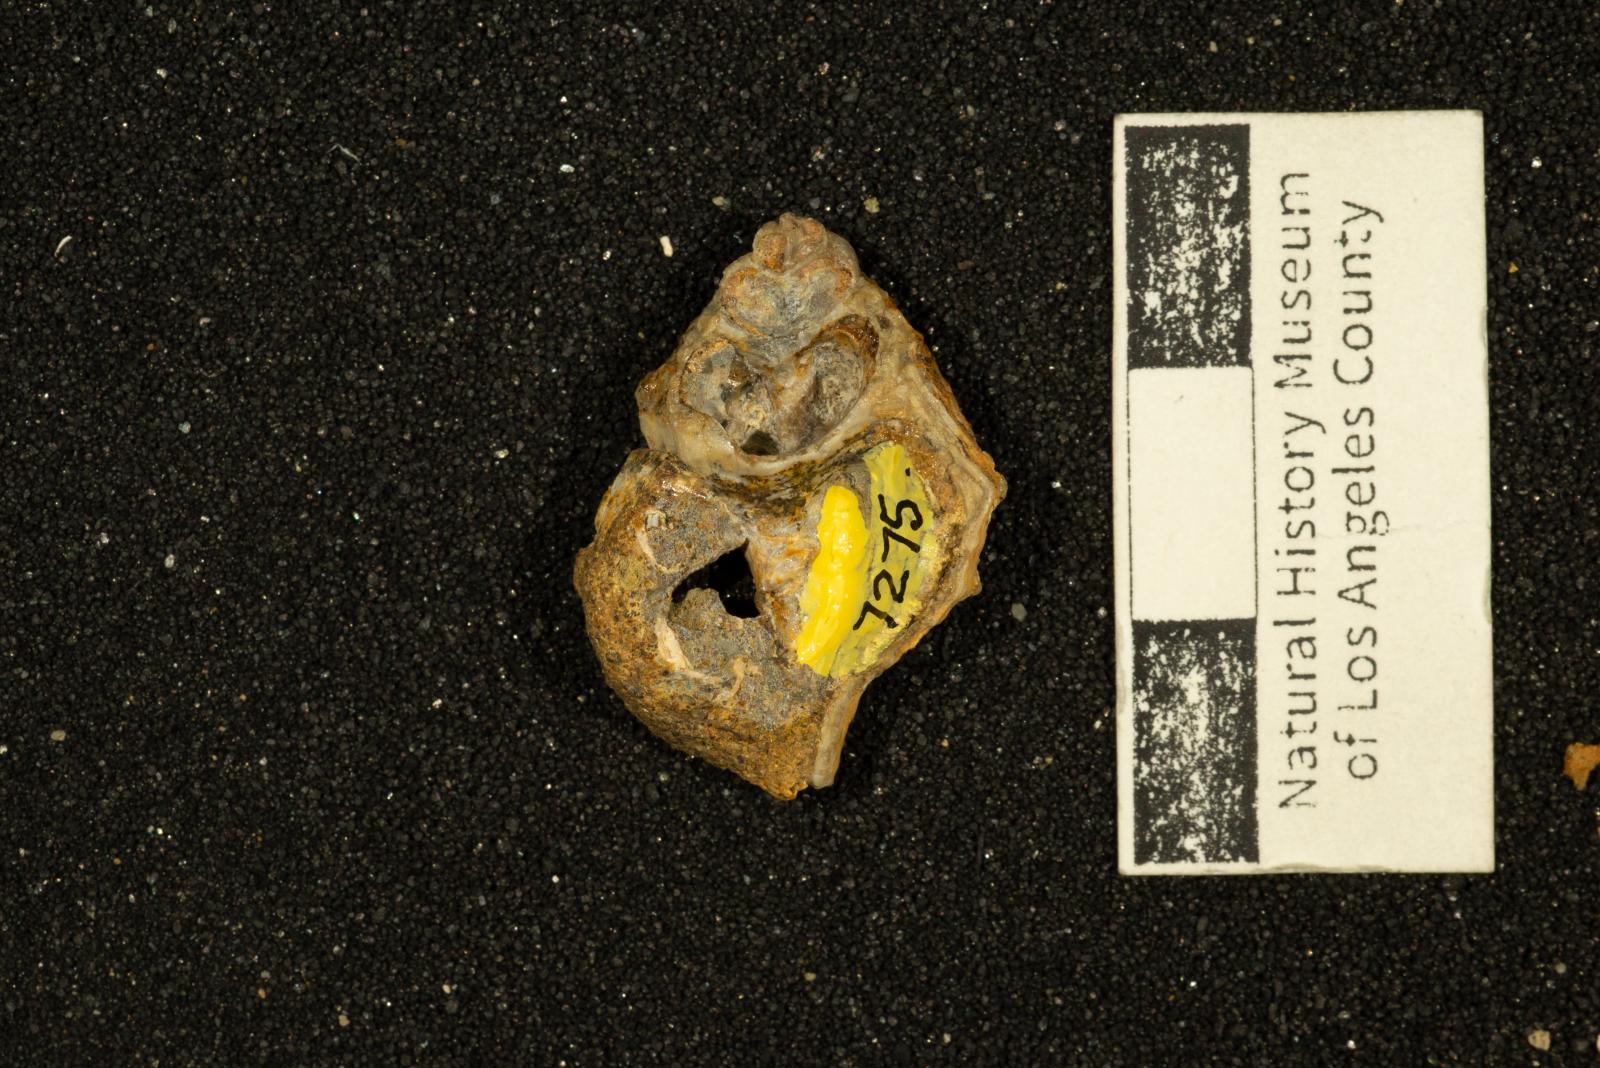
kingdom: Animalia
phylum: Mollusca
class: Gastropoda
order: Neogastropoda
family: Perissityidae
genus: Murphitys
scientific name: Murphitys corona
